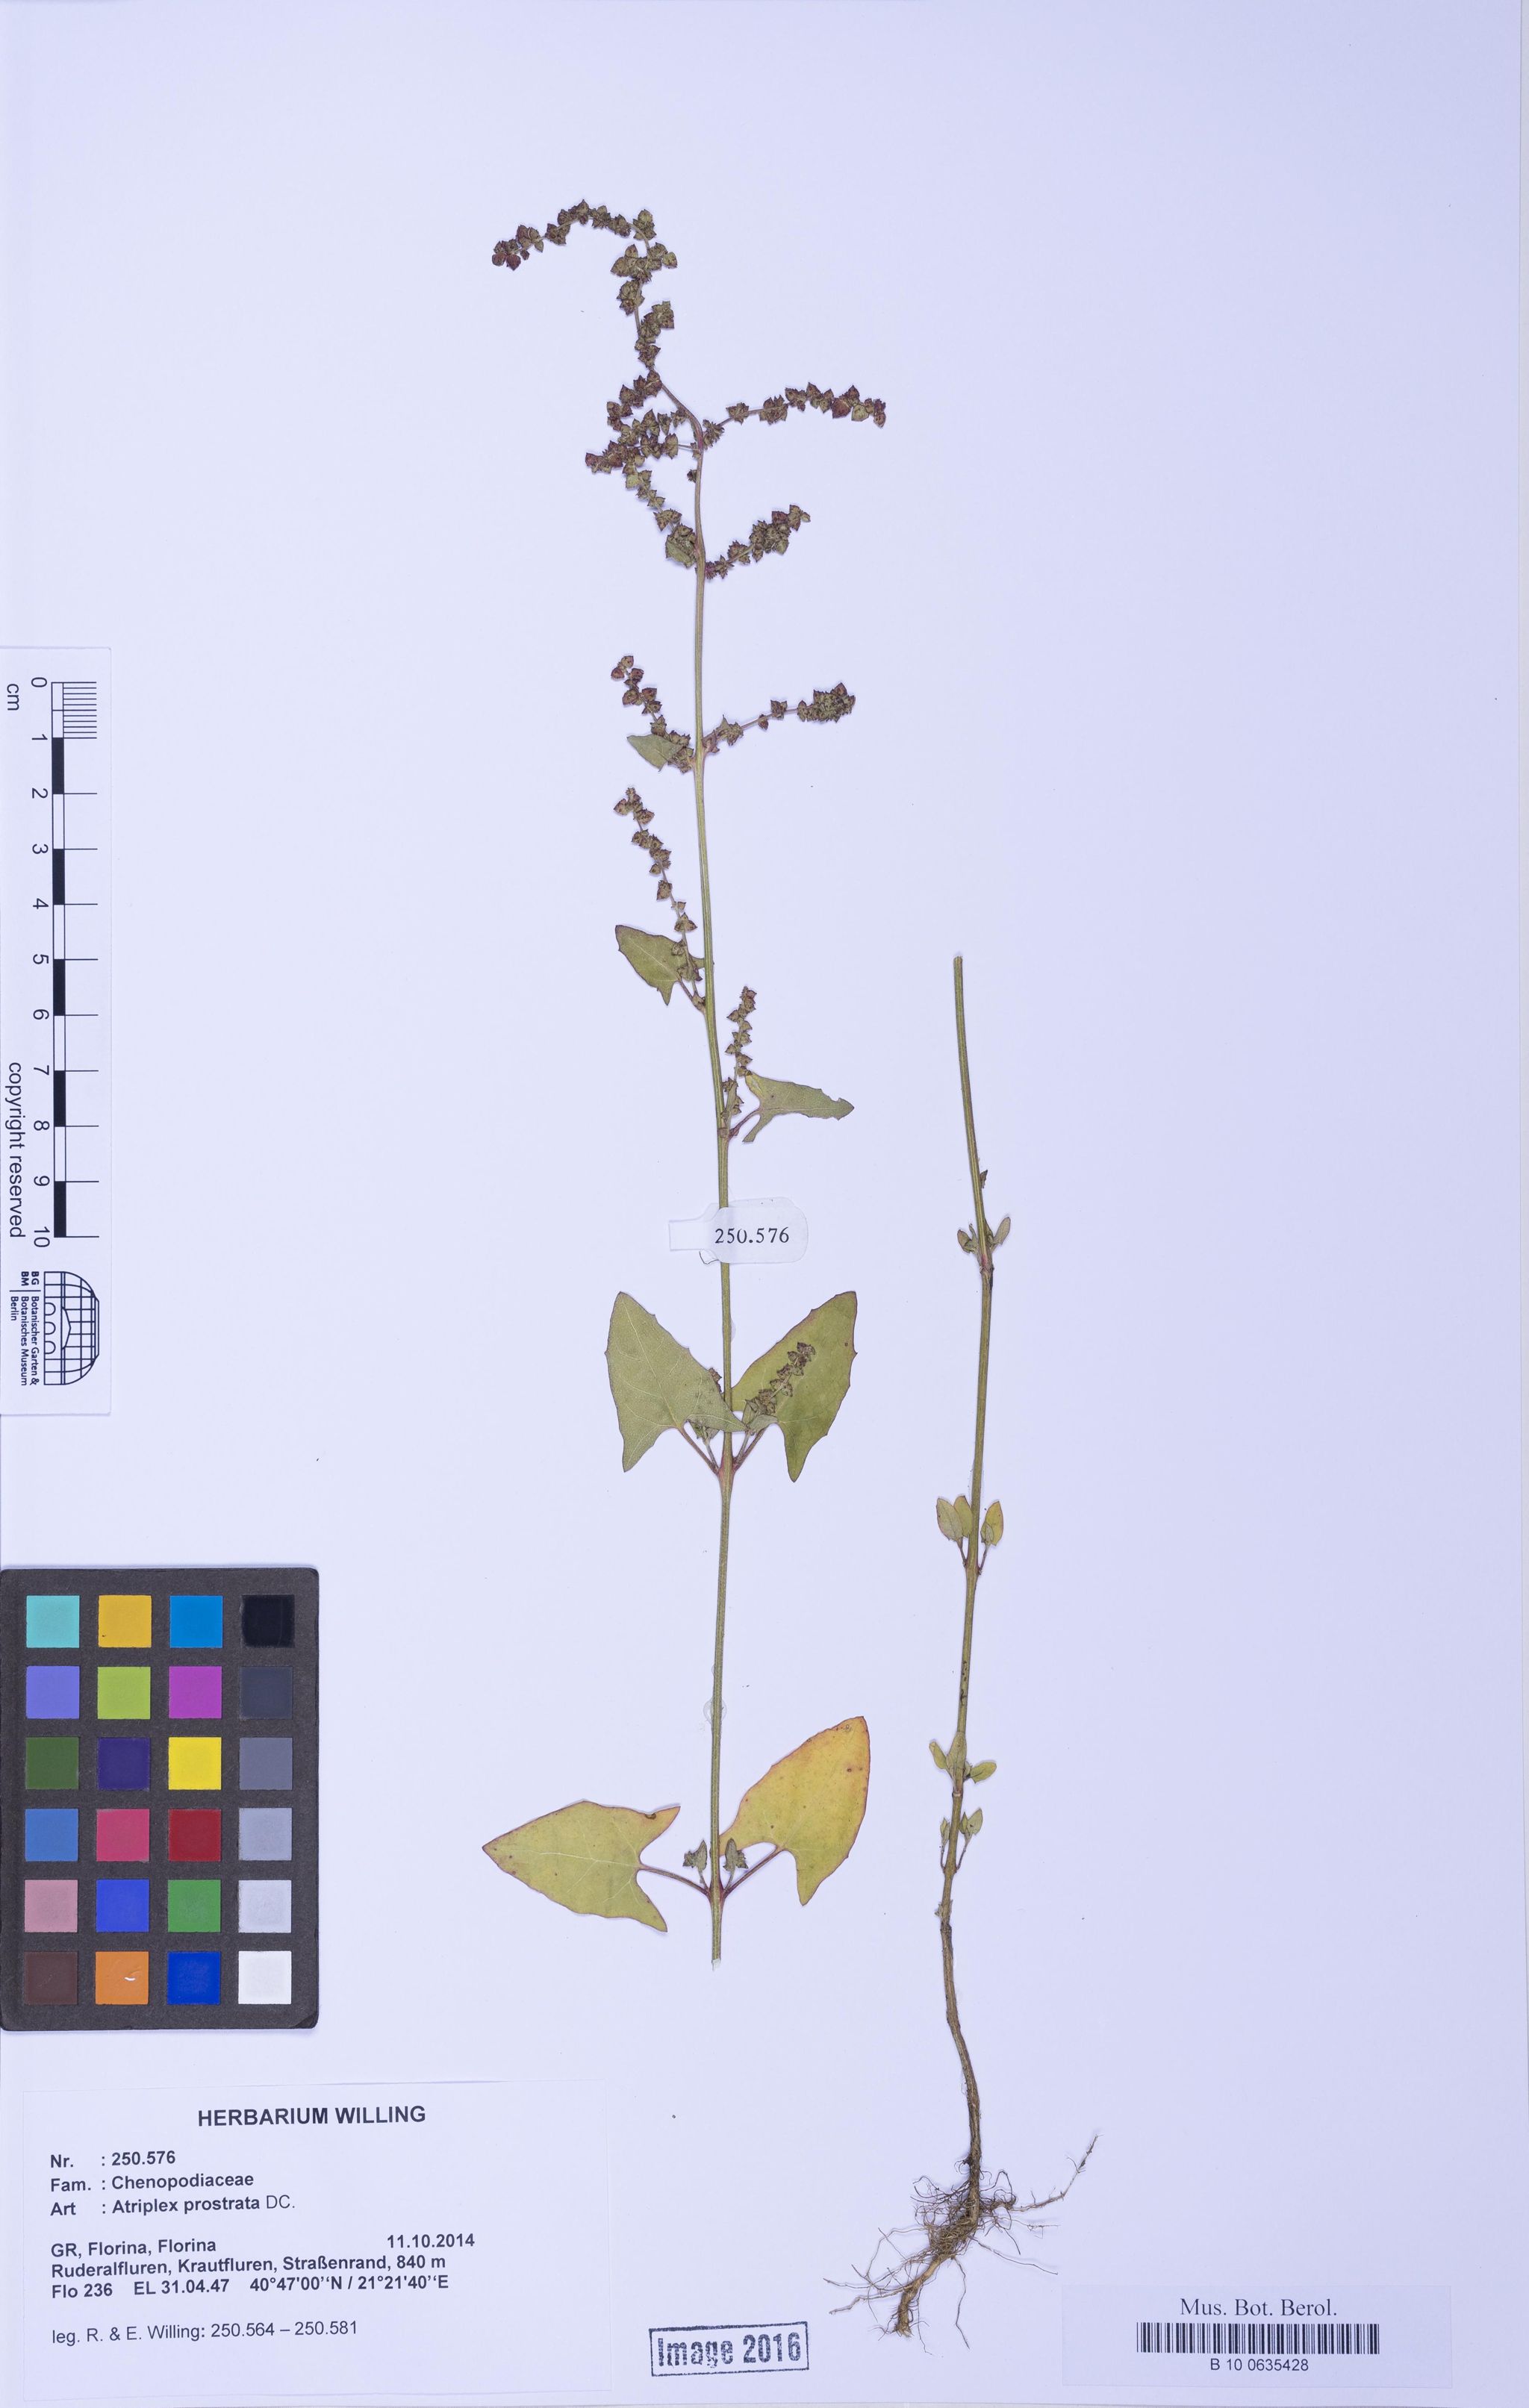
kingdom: Plantae
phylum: Tracheophyta
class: Magnoliopsida
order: Caryophyllales
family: Amaranthaceae
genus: Atriplex
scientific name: Atriplex prostrata
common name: Spear-leaved orache
